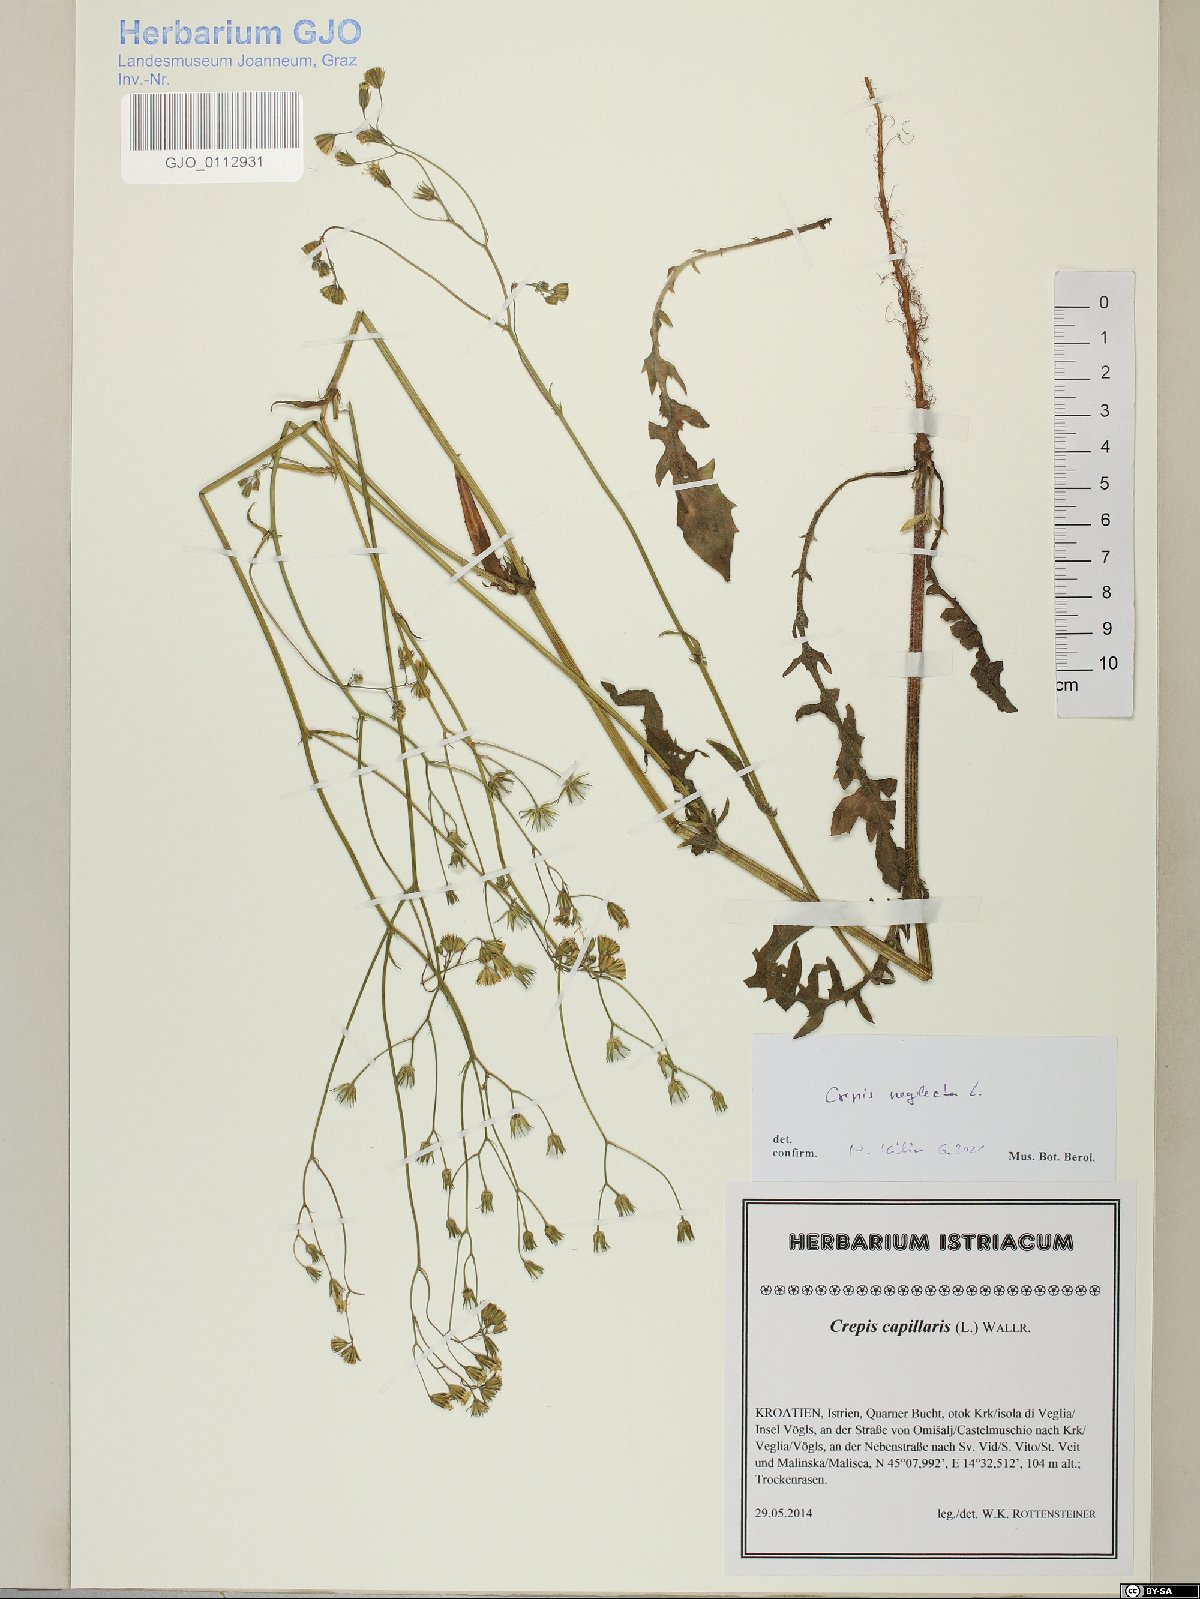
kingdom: Plantae
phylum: Tracheophyta
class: Magnoliopsida
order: Asterales
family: Asteraceae
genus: Crepis
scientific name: Crepis neglecta
